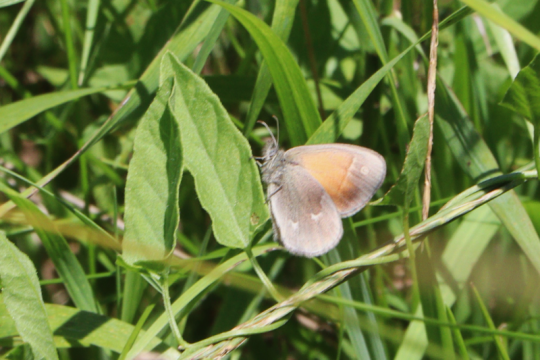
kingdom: Animalia
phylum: Arthropoda
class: Insecta
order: Lepidoptera
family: Nymphalidae
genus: Coenonympha
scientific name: Coenonympha tullia
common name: Large Heath
